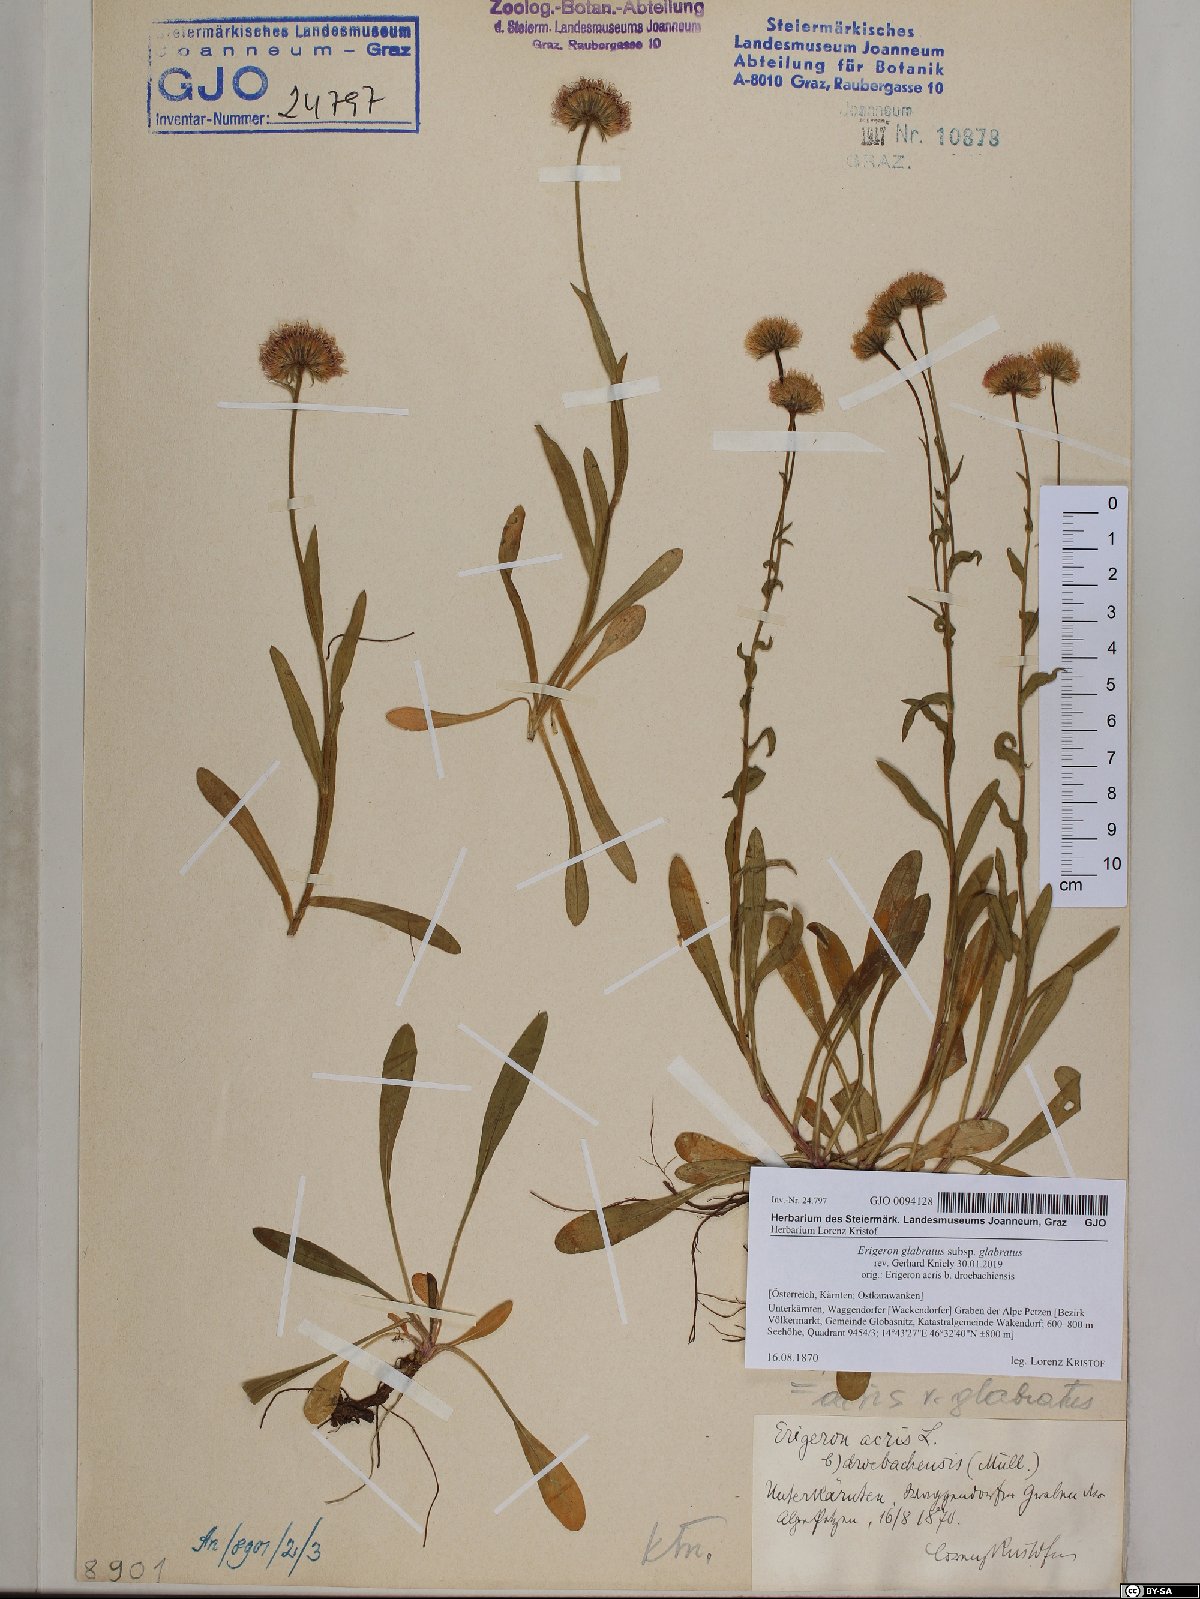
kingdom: Plantae
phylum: Tracheophyta
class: Magnoliopsida
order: Asterales
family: Asteraceae
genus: Erigeron
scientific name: Erigeron glabratus
